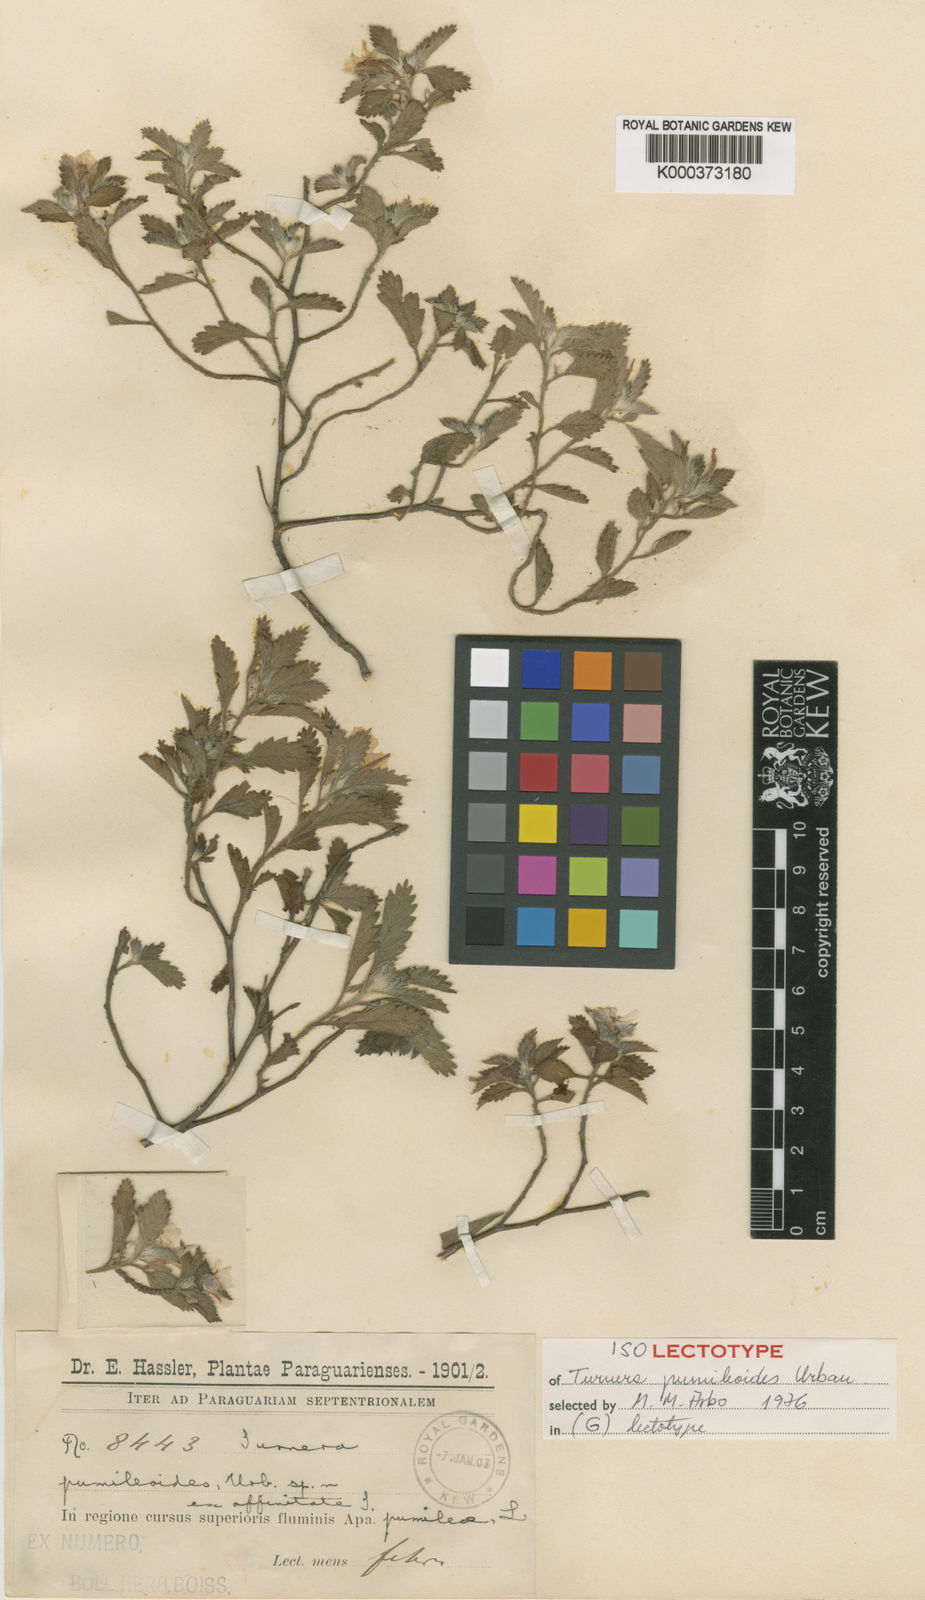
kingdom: Plantae
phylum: Tracheophyta
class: Magnoliopsida
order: Malpighiales
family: Turneraceae
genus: Turnera
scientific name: Turnera dolichostigma
